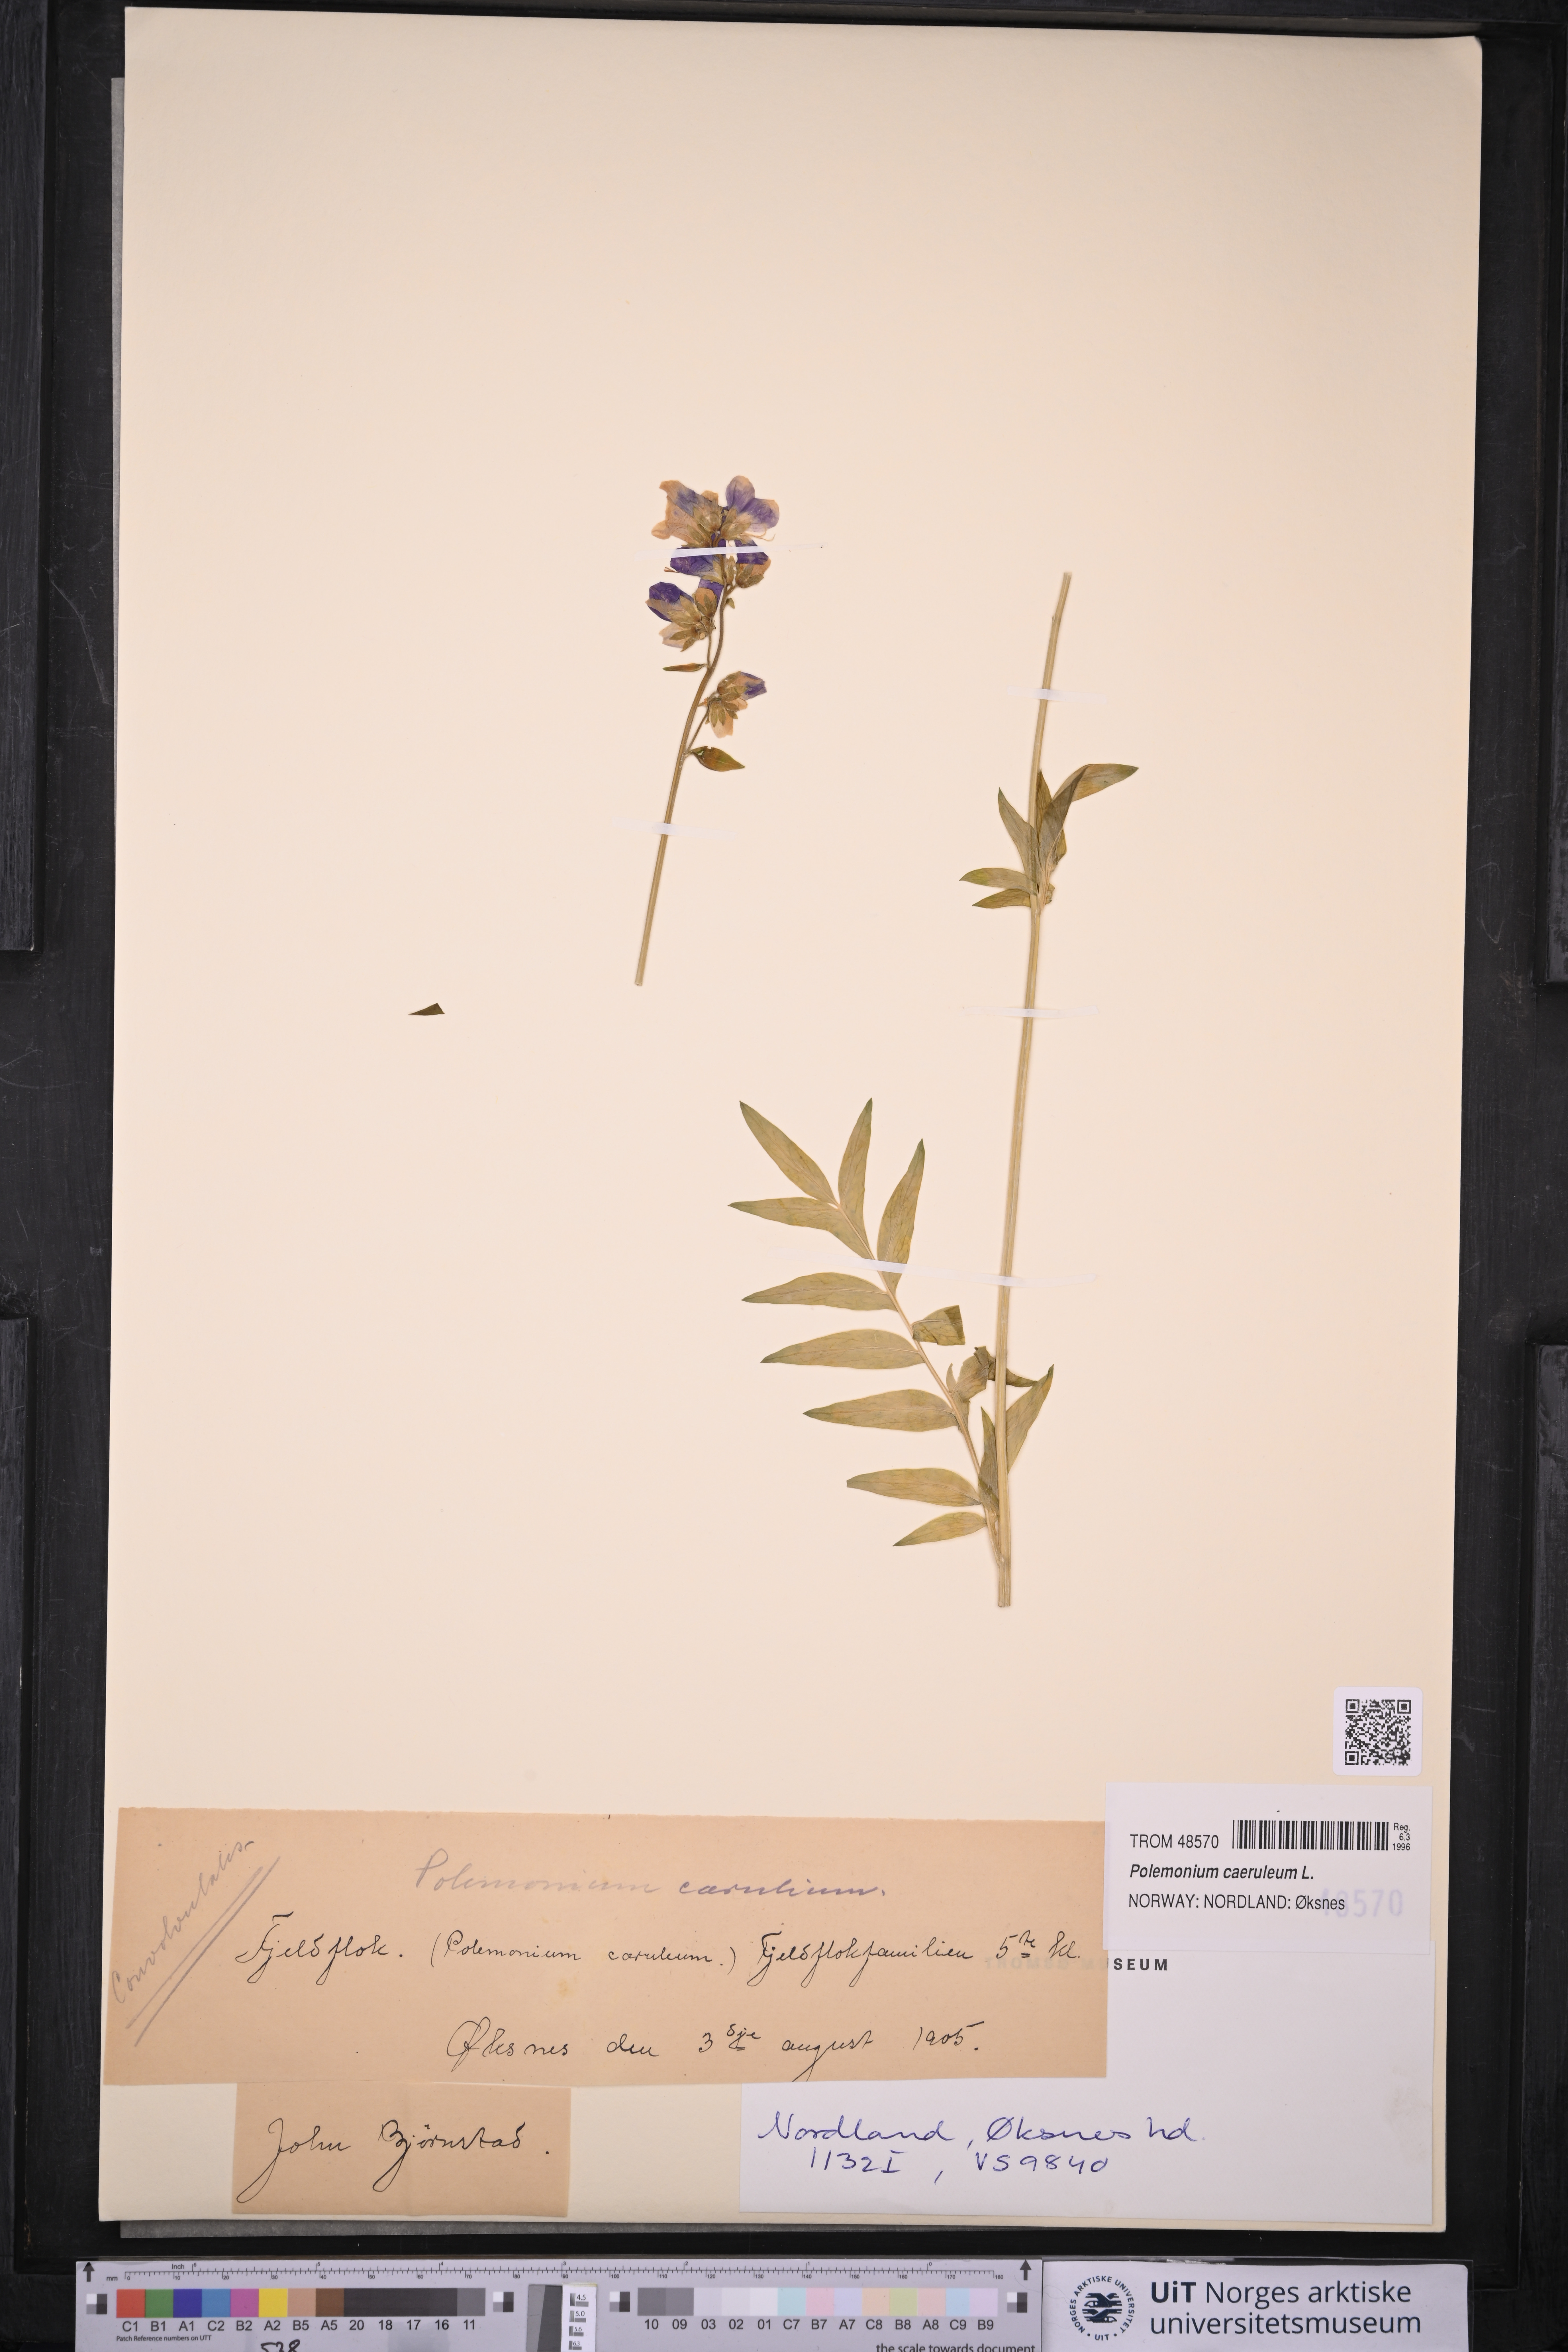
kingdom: Plantae
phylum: Tracheophyta
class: Magnoliopsida
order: Ericales
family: Polemoniaceae
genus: Polemonium
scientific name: Polemonium caeruleum
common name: Jacob's-ladder
